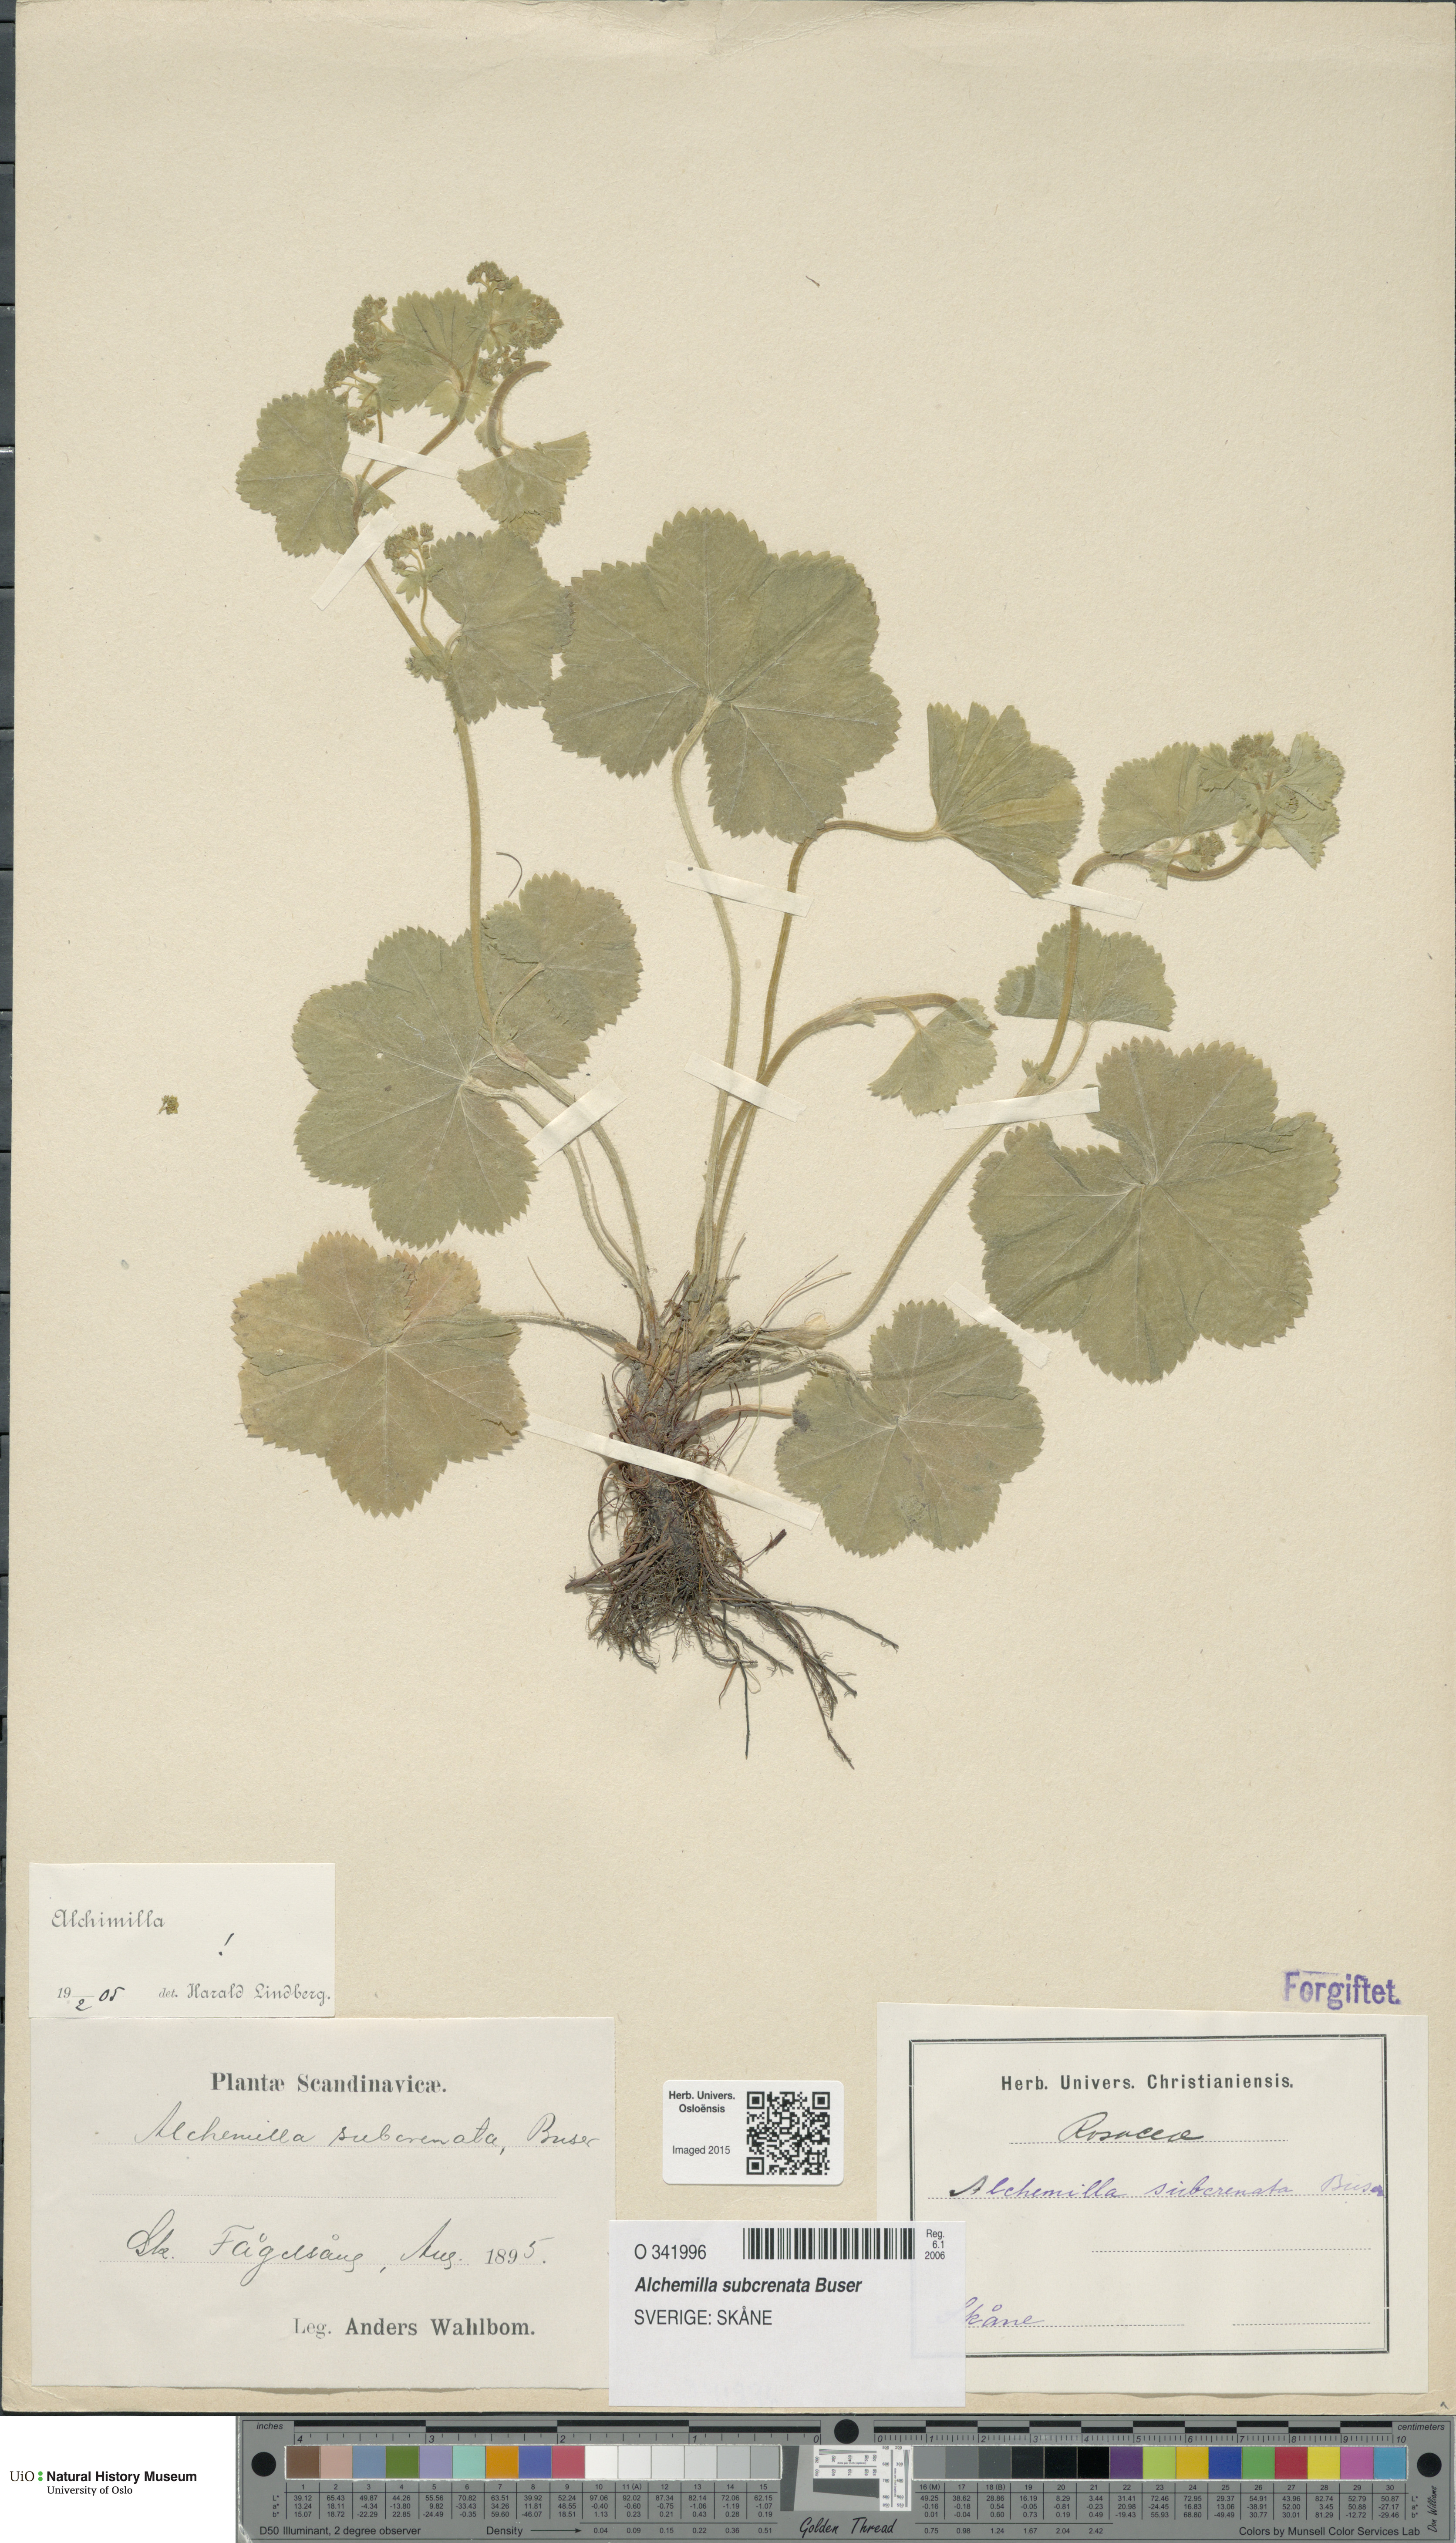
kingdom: Plantae
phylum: Tracheophyta
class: Magnoliopsida
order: Rosales
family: Rosaceae
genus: Alchemilla
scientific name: Alchemilla subcrenata
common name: Broadtooth lady's mantle
